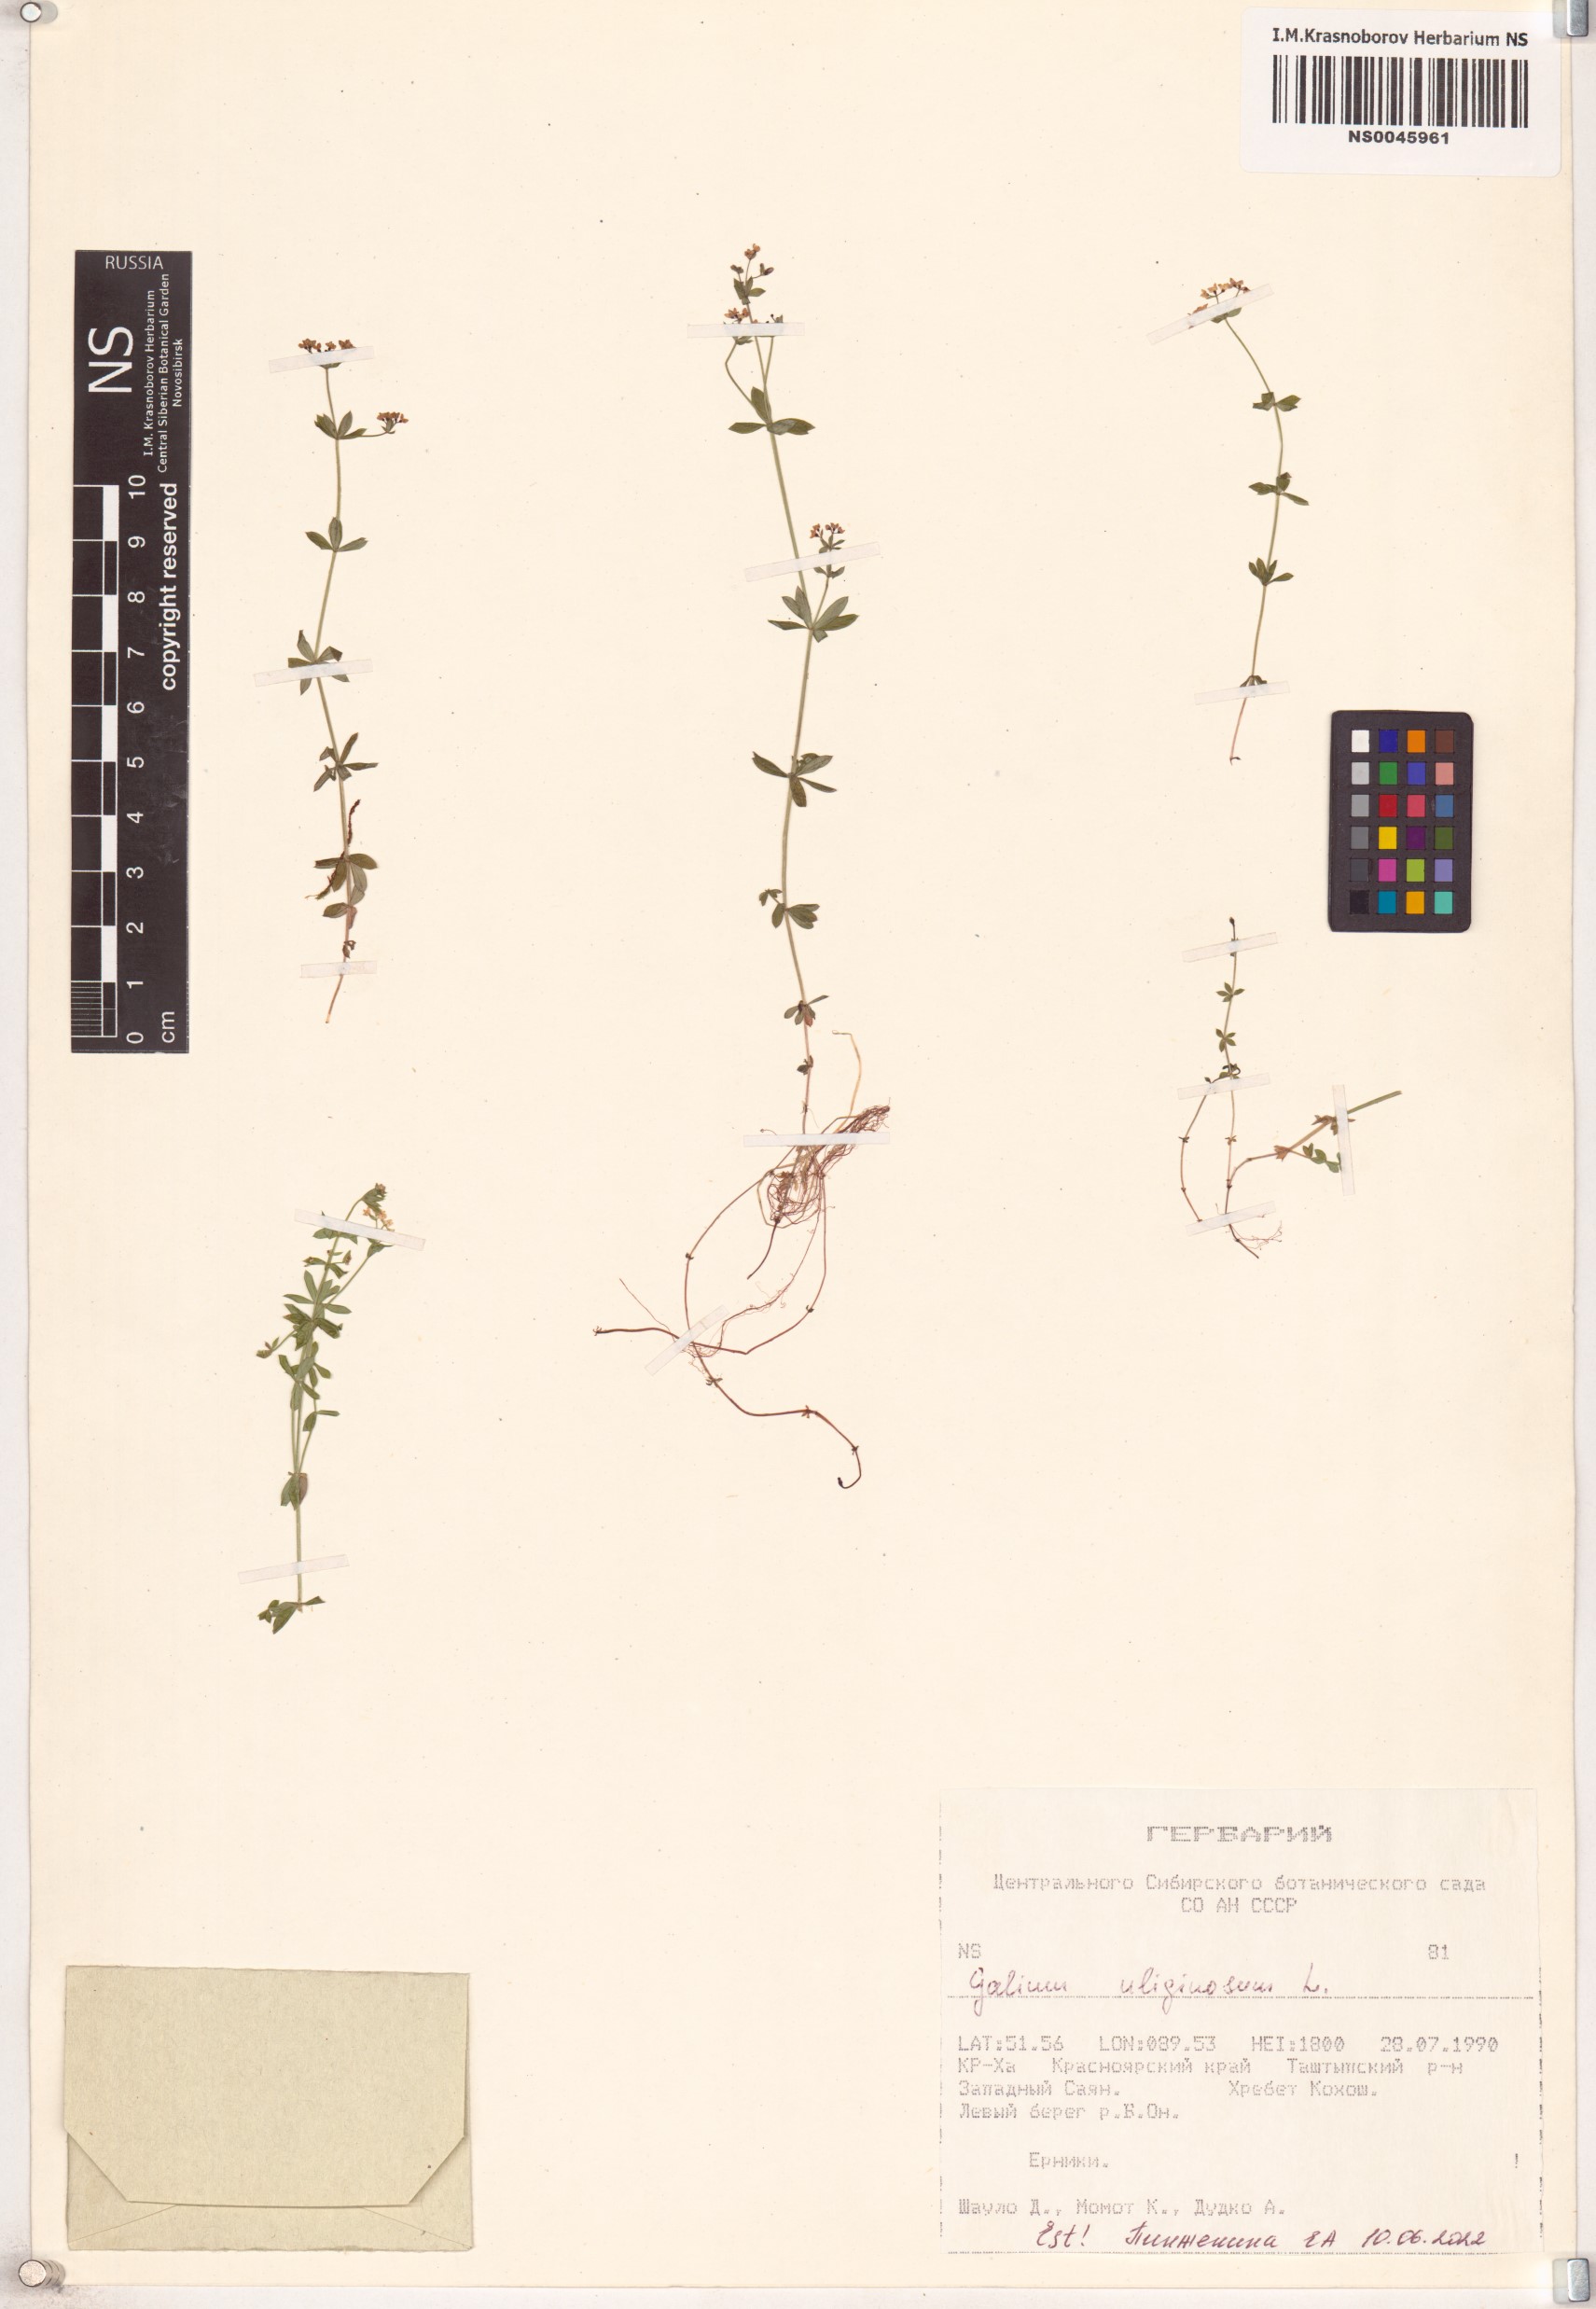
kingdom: Plantae
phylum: Tracheophyta
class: Magnoliopsida
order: Gentianales
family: Rubiaceae
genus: Galium
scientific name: Galium uliginosum
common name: Fen bedstraw
